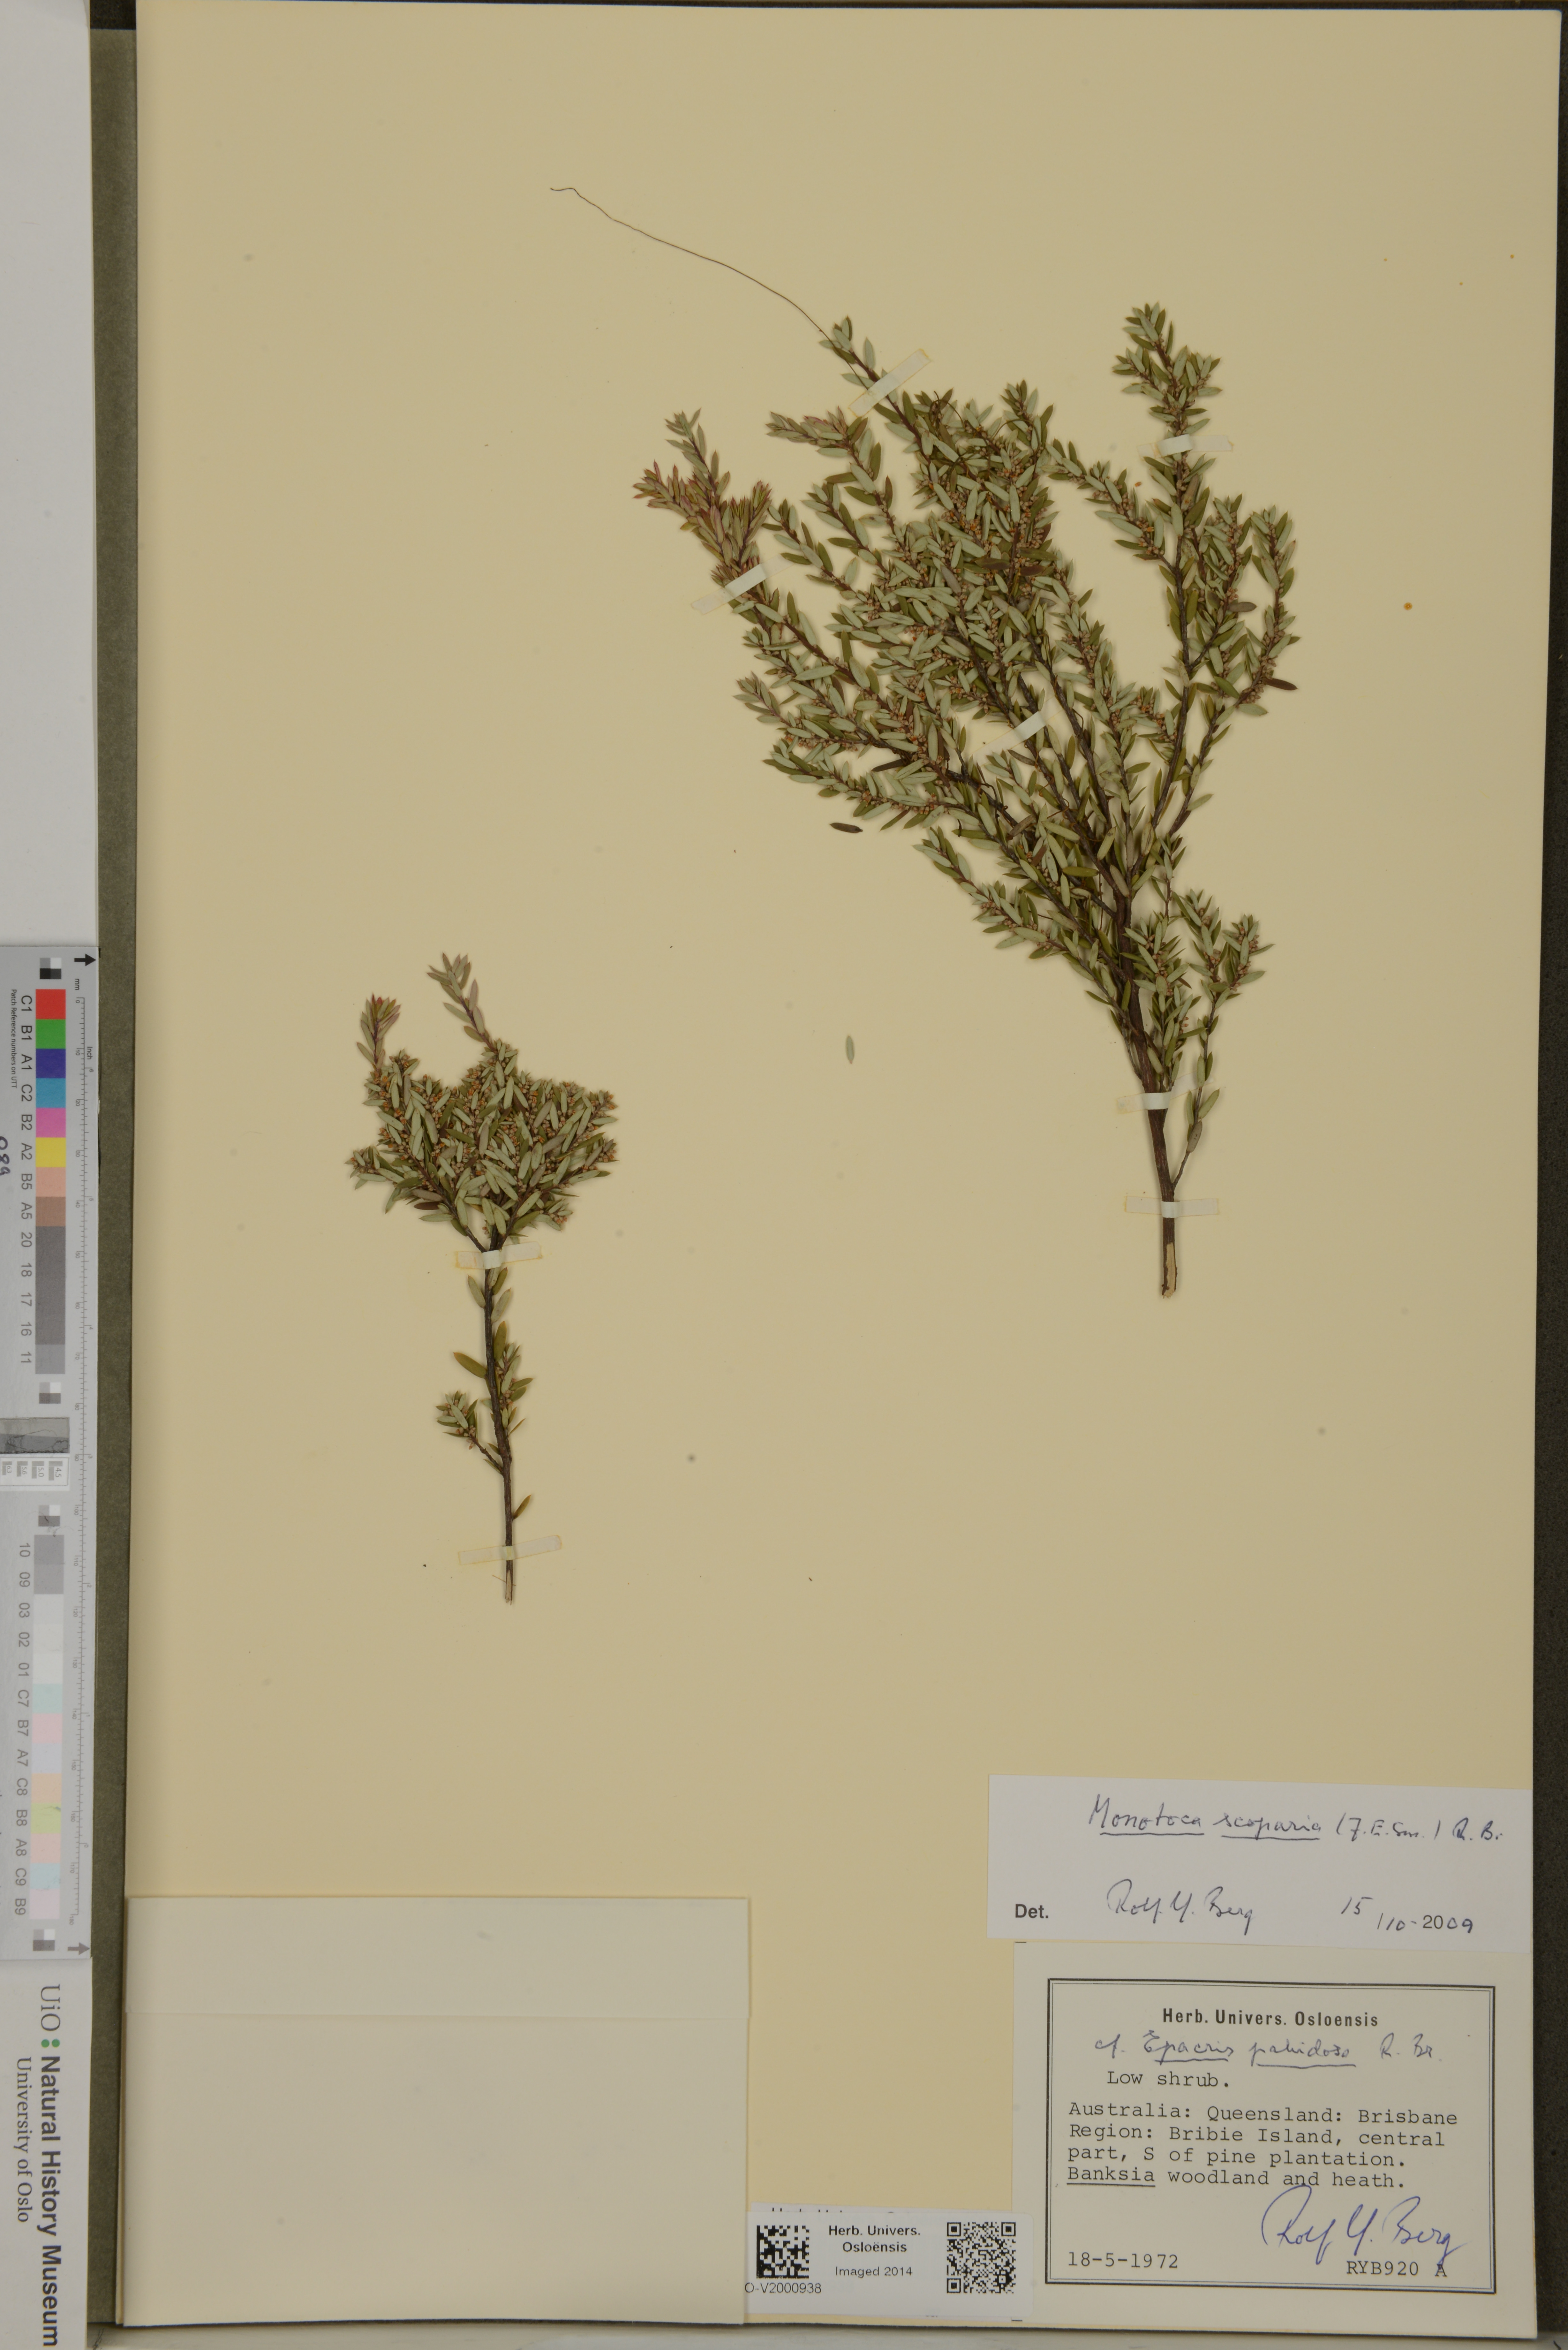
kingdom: Plantae
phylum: Tracheophyta
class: Magnoliopsida
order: Ericales
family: Ericaceae
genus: Monotoca
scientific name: Monotoca scoparia
